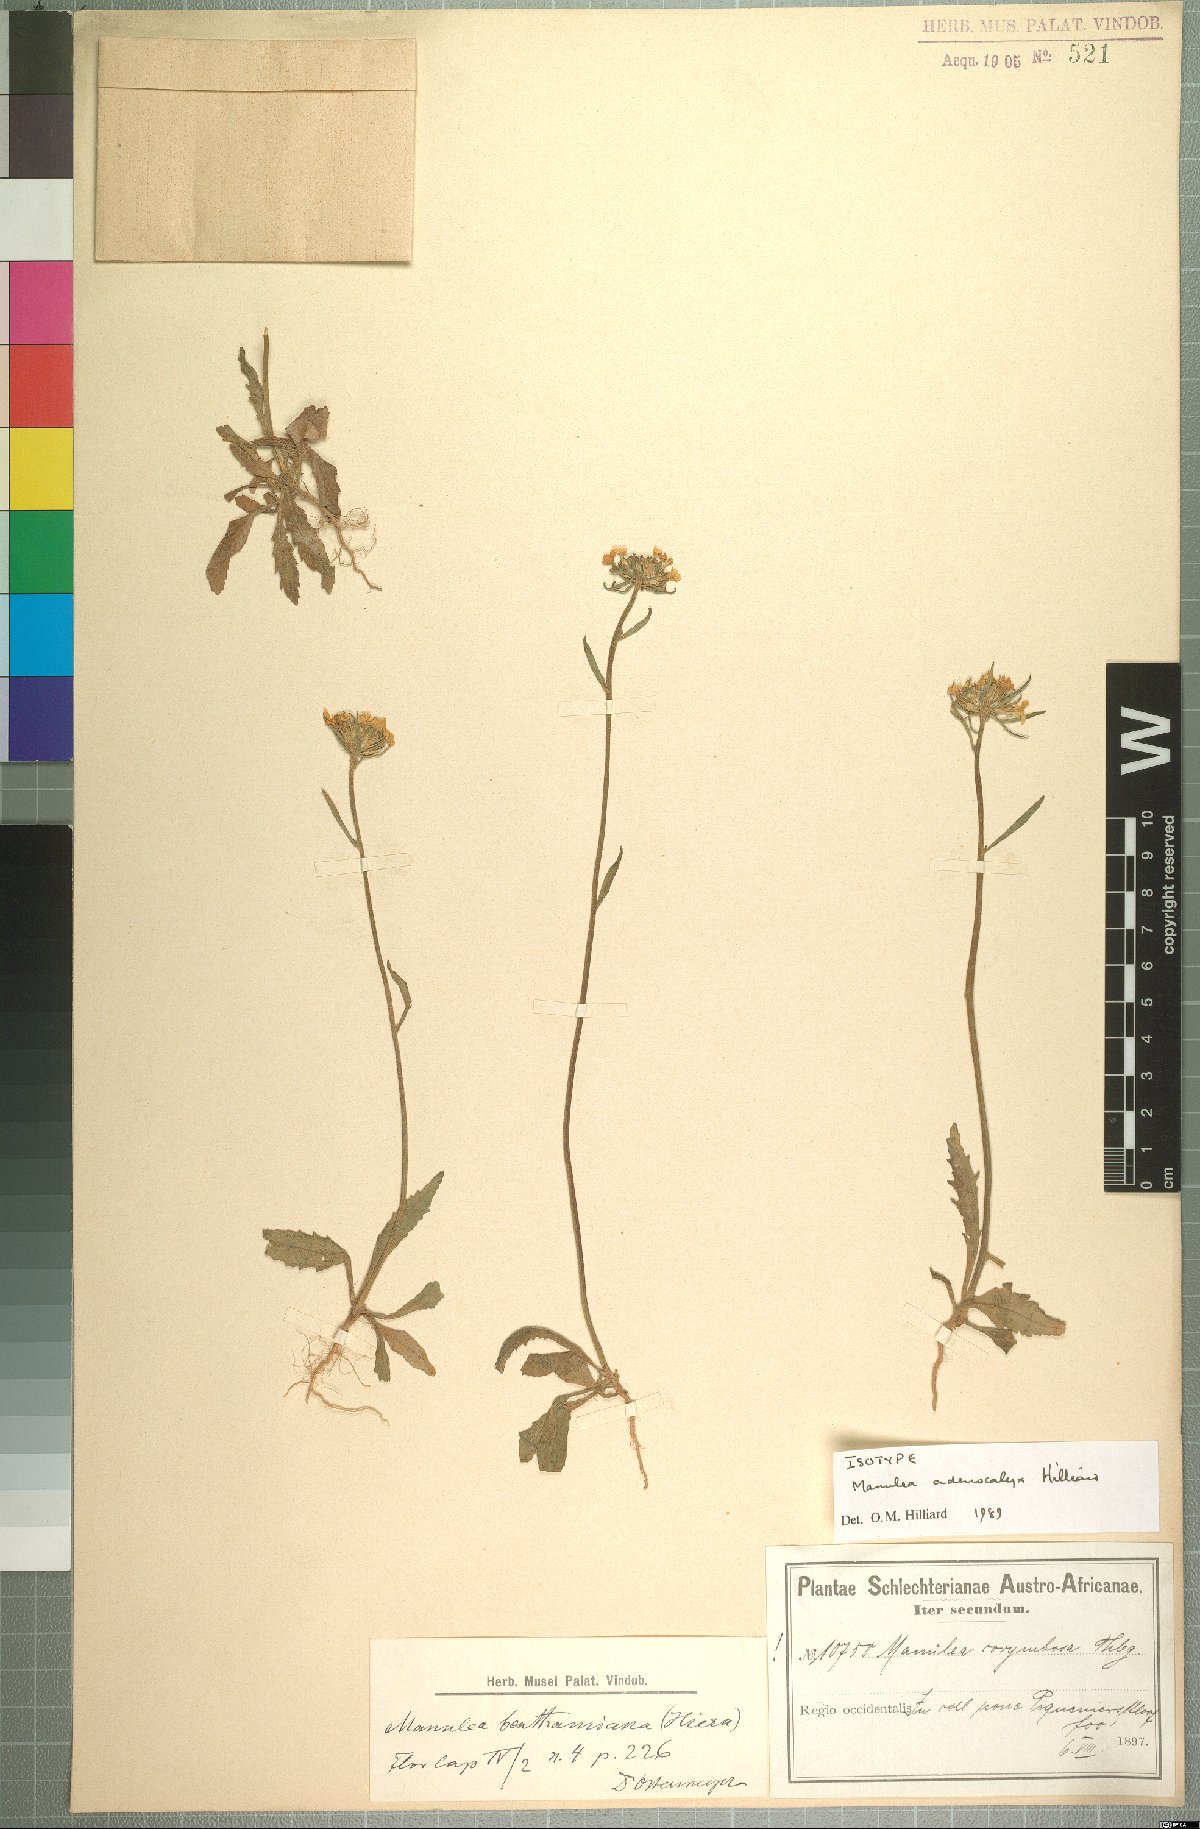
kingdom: Plantae
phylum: Tracheophyta
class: Magnoliopsida
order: Lamiales
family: Scrophulariaceae
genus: Manulea
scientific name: Manulea adenocalyx
